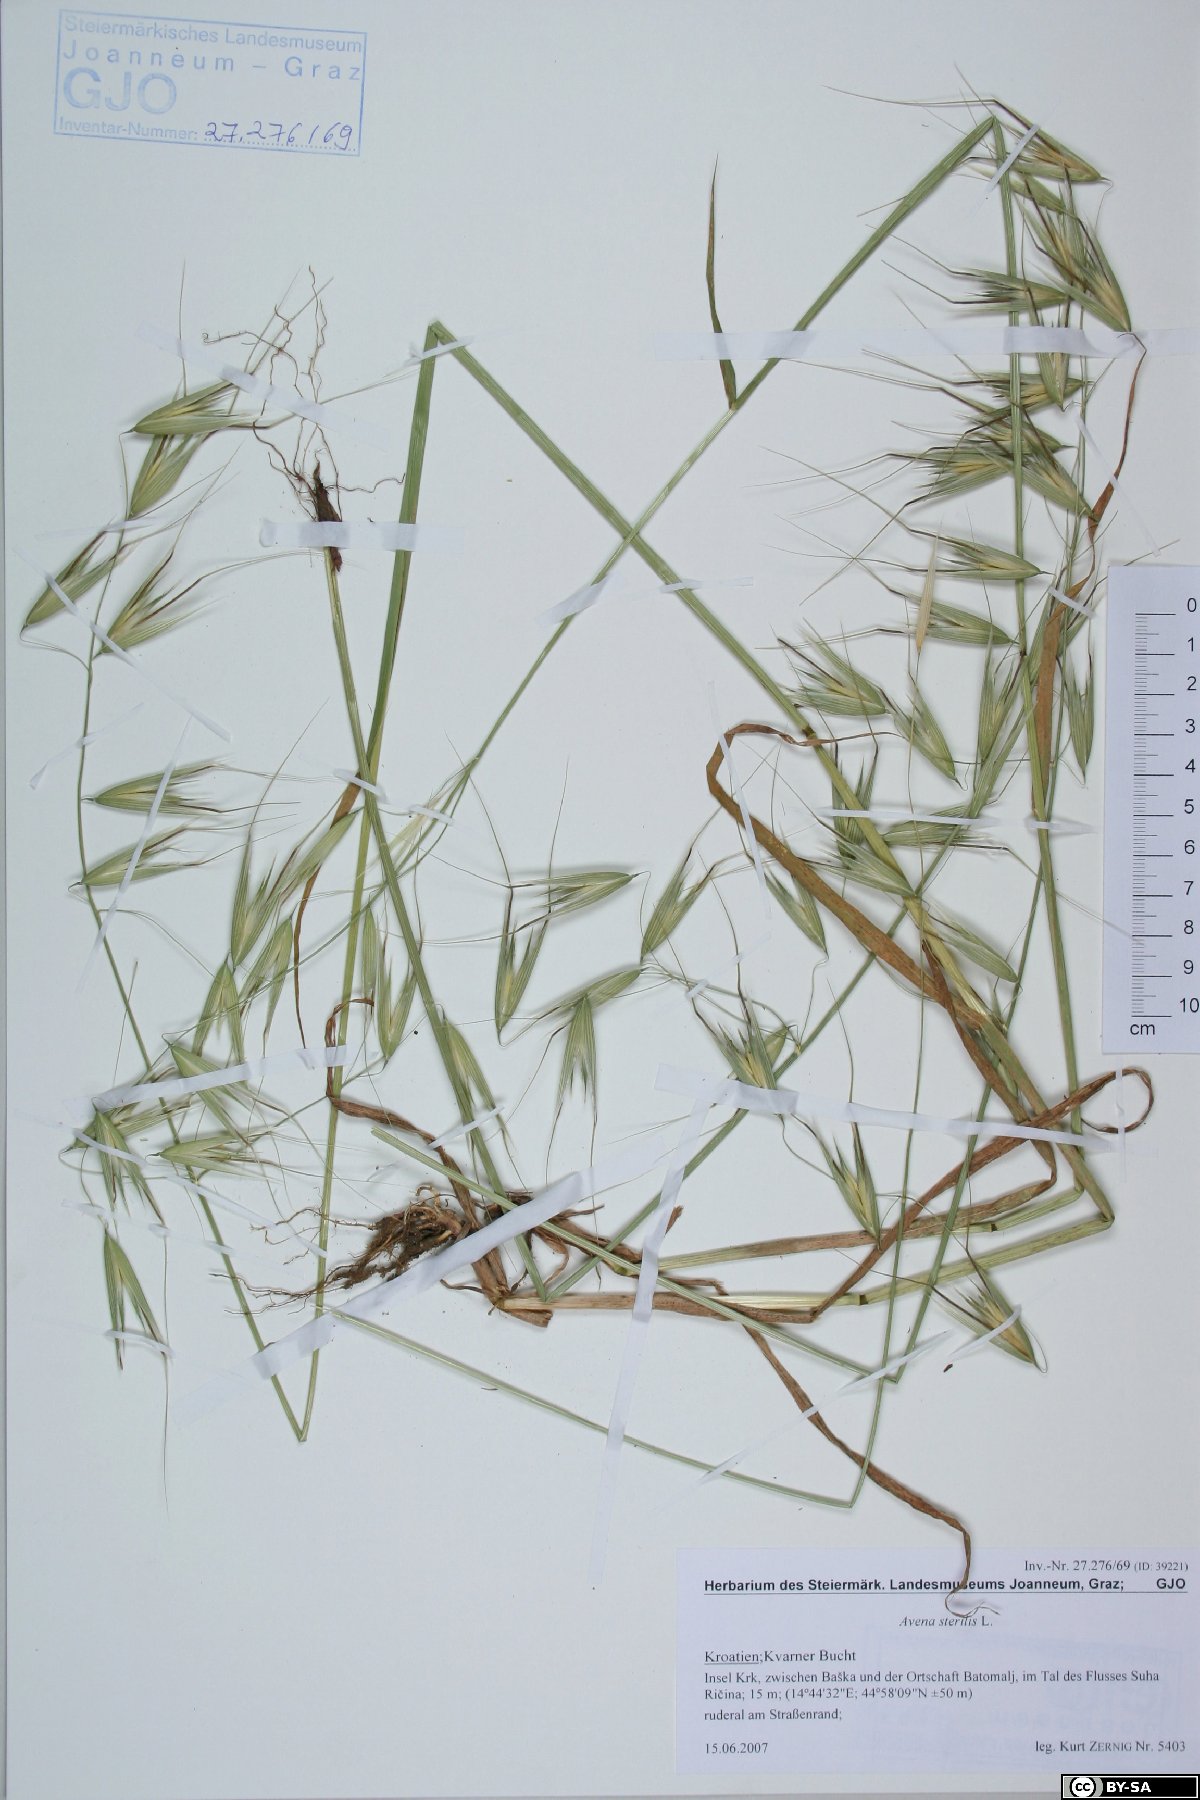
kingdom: Plantae
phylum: Tracheophyta
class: Liliopsida
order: Poales
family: Poaceae
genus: Avena
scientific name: Avena sterilis
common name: Animated oat
